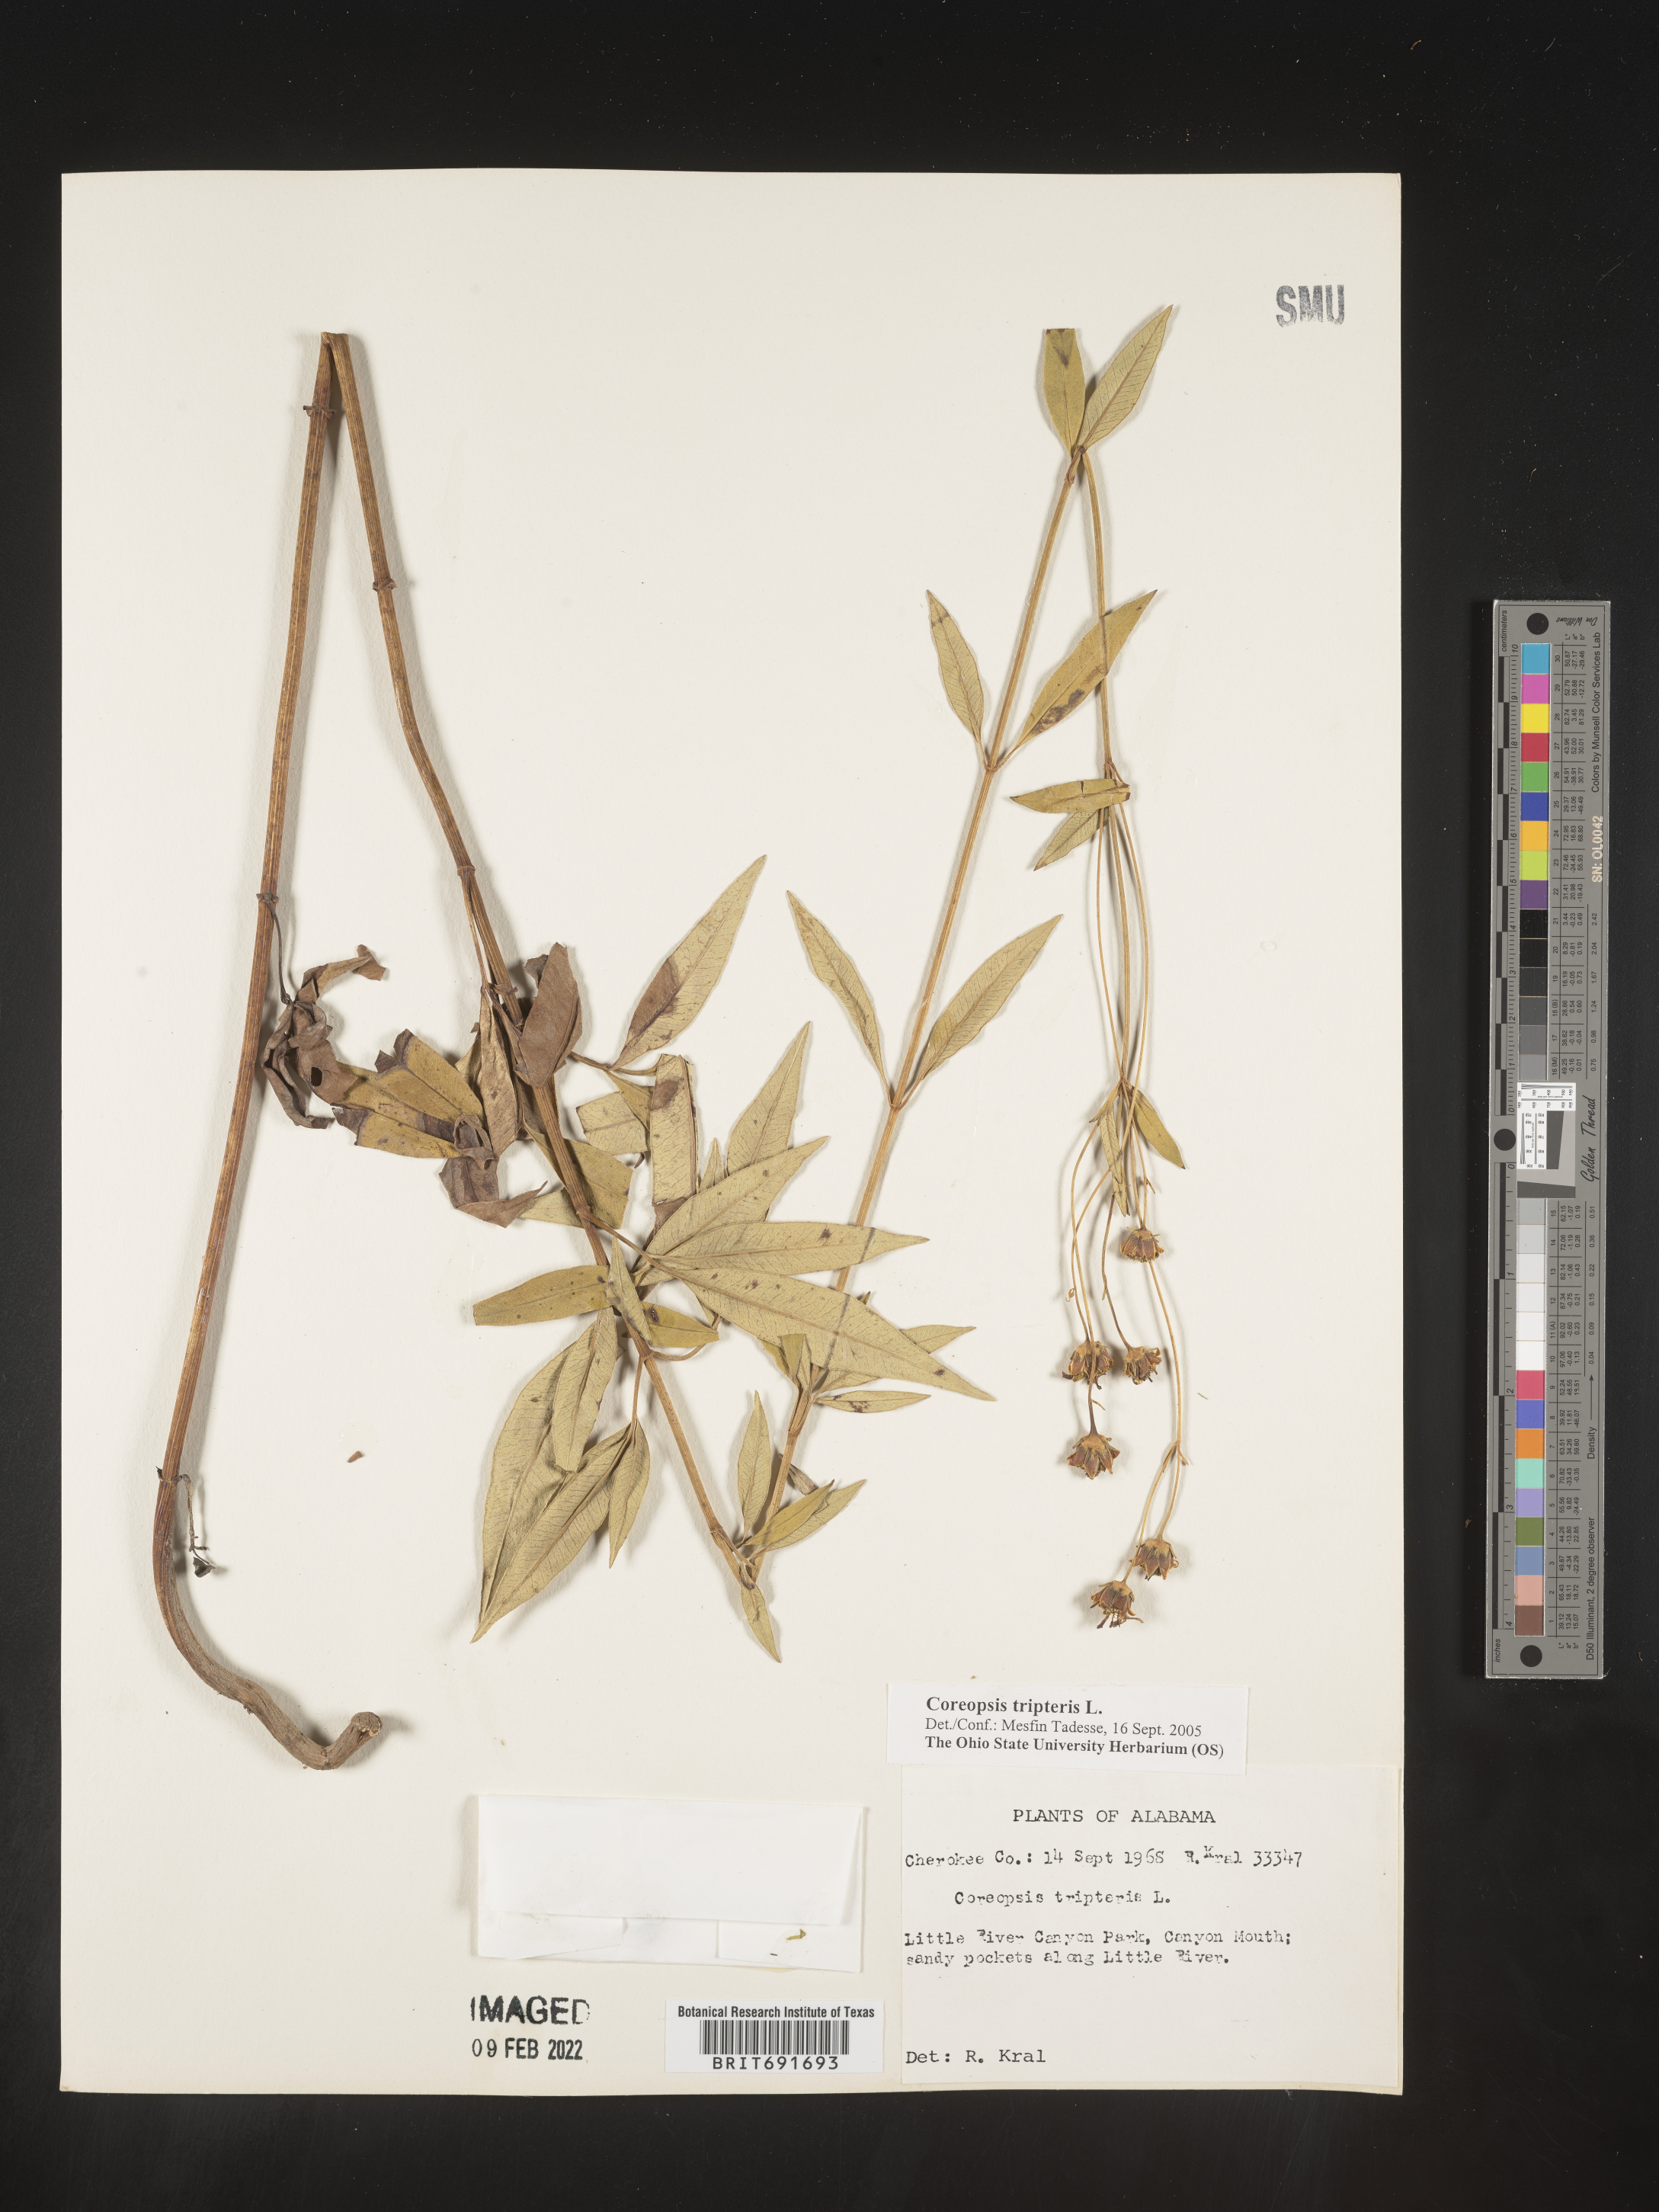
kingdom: Plantae
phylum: Tracheophyta
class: Magnoliopsida
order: Asterales
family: Asteraceae
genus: Coreopsis
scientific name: Coreopsis tripteris
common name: Tall coreopsis
